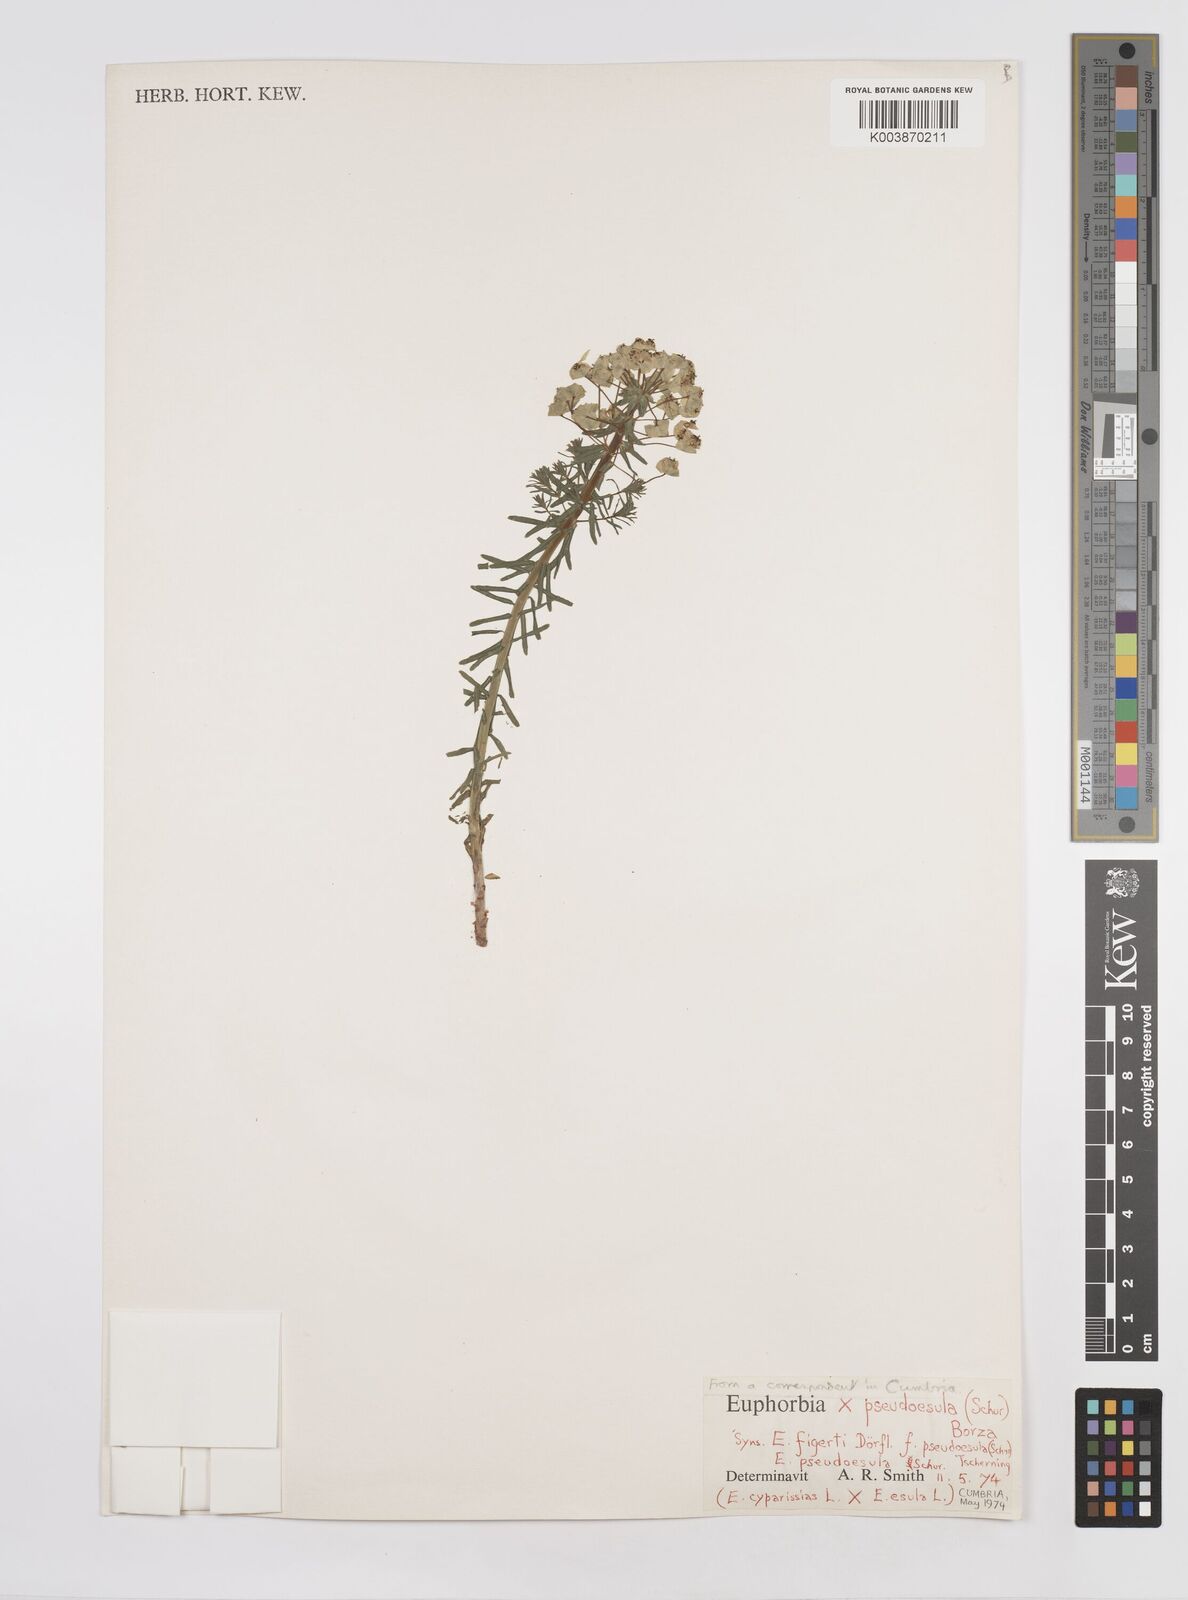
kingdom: Plantae
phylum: Tracheophyta
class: Magnoliopsida
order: Malpighiales
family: Euphorbiaceae
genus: Euphorbia
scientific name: Euphorbia pseudoesula
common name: False leafy spurge
